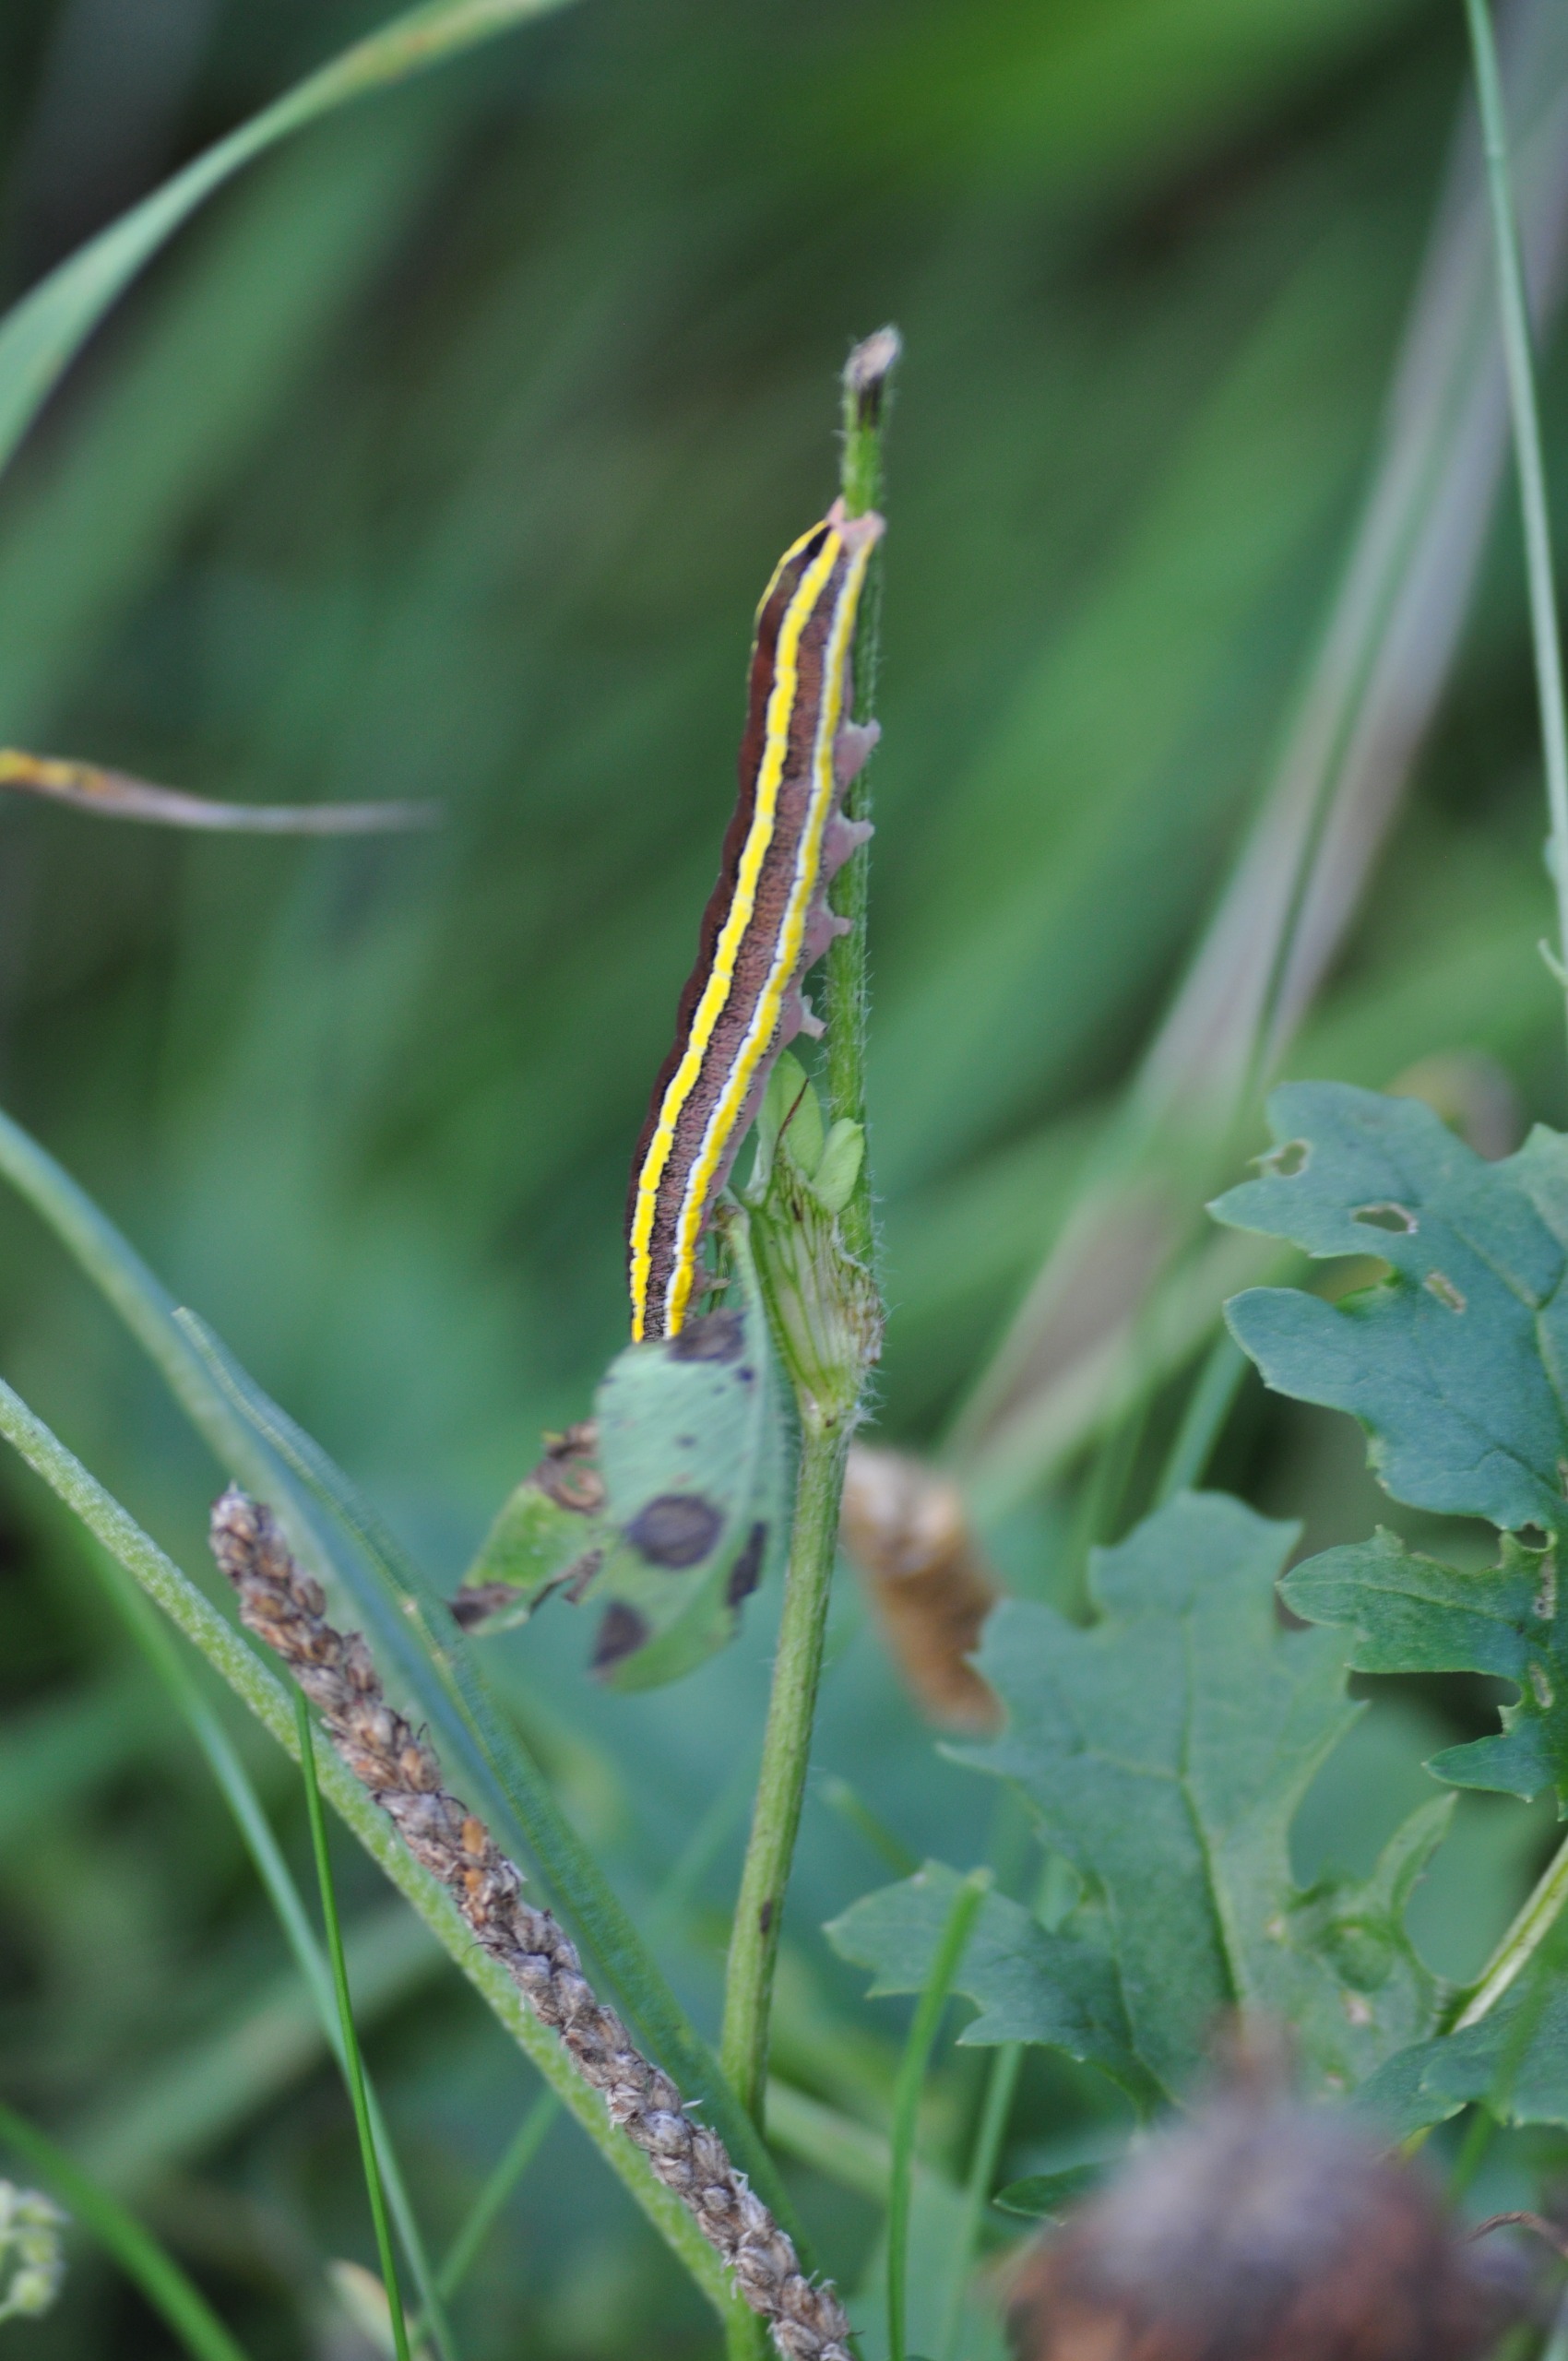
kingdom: Animalia
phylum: Arthropoda
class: Insecta
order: Lepidoptera
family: Noctuidae
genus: Ceramica
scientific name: Ceramica pisi
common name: Ærteugle
